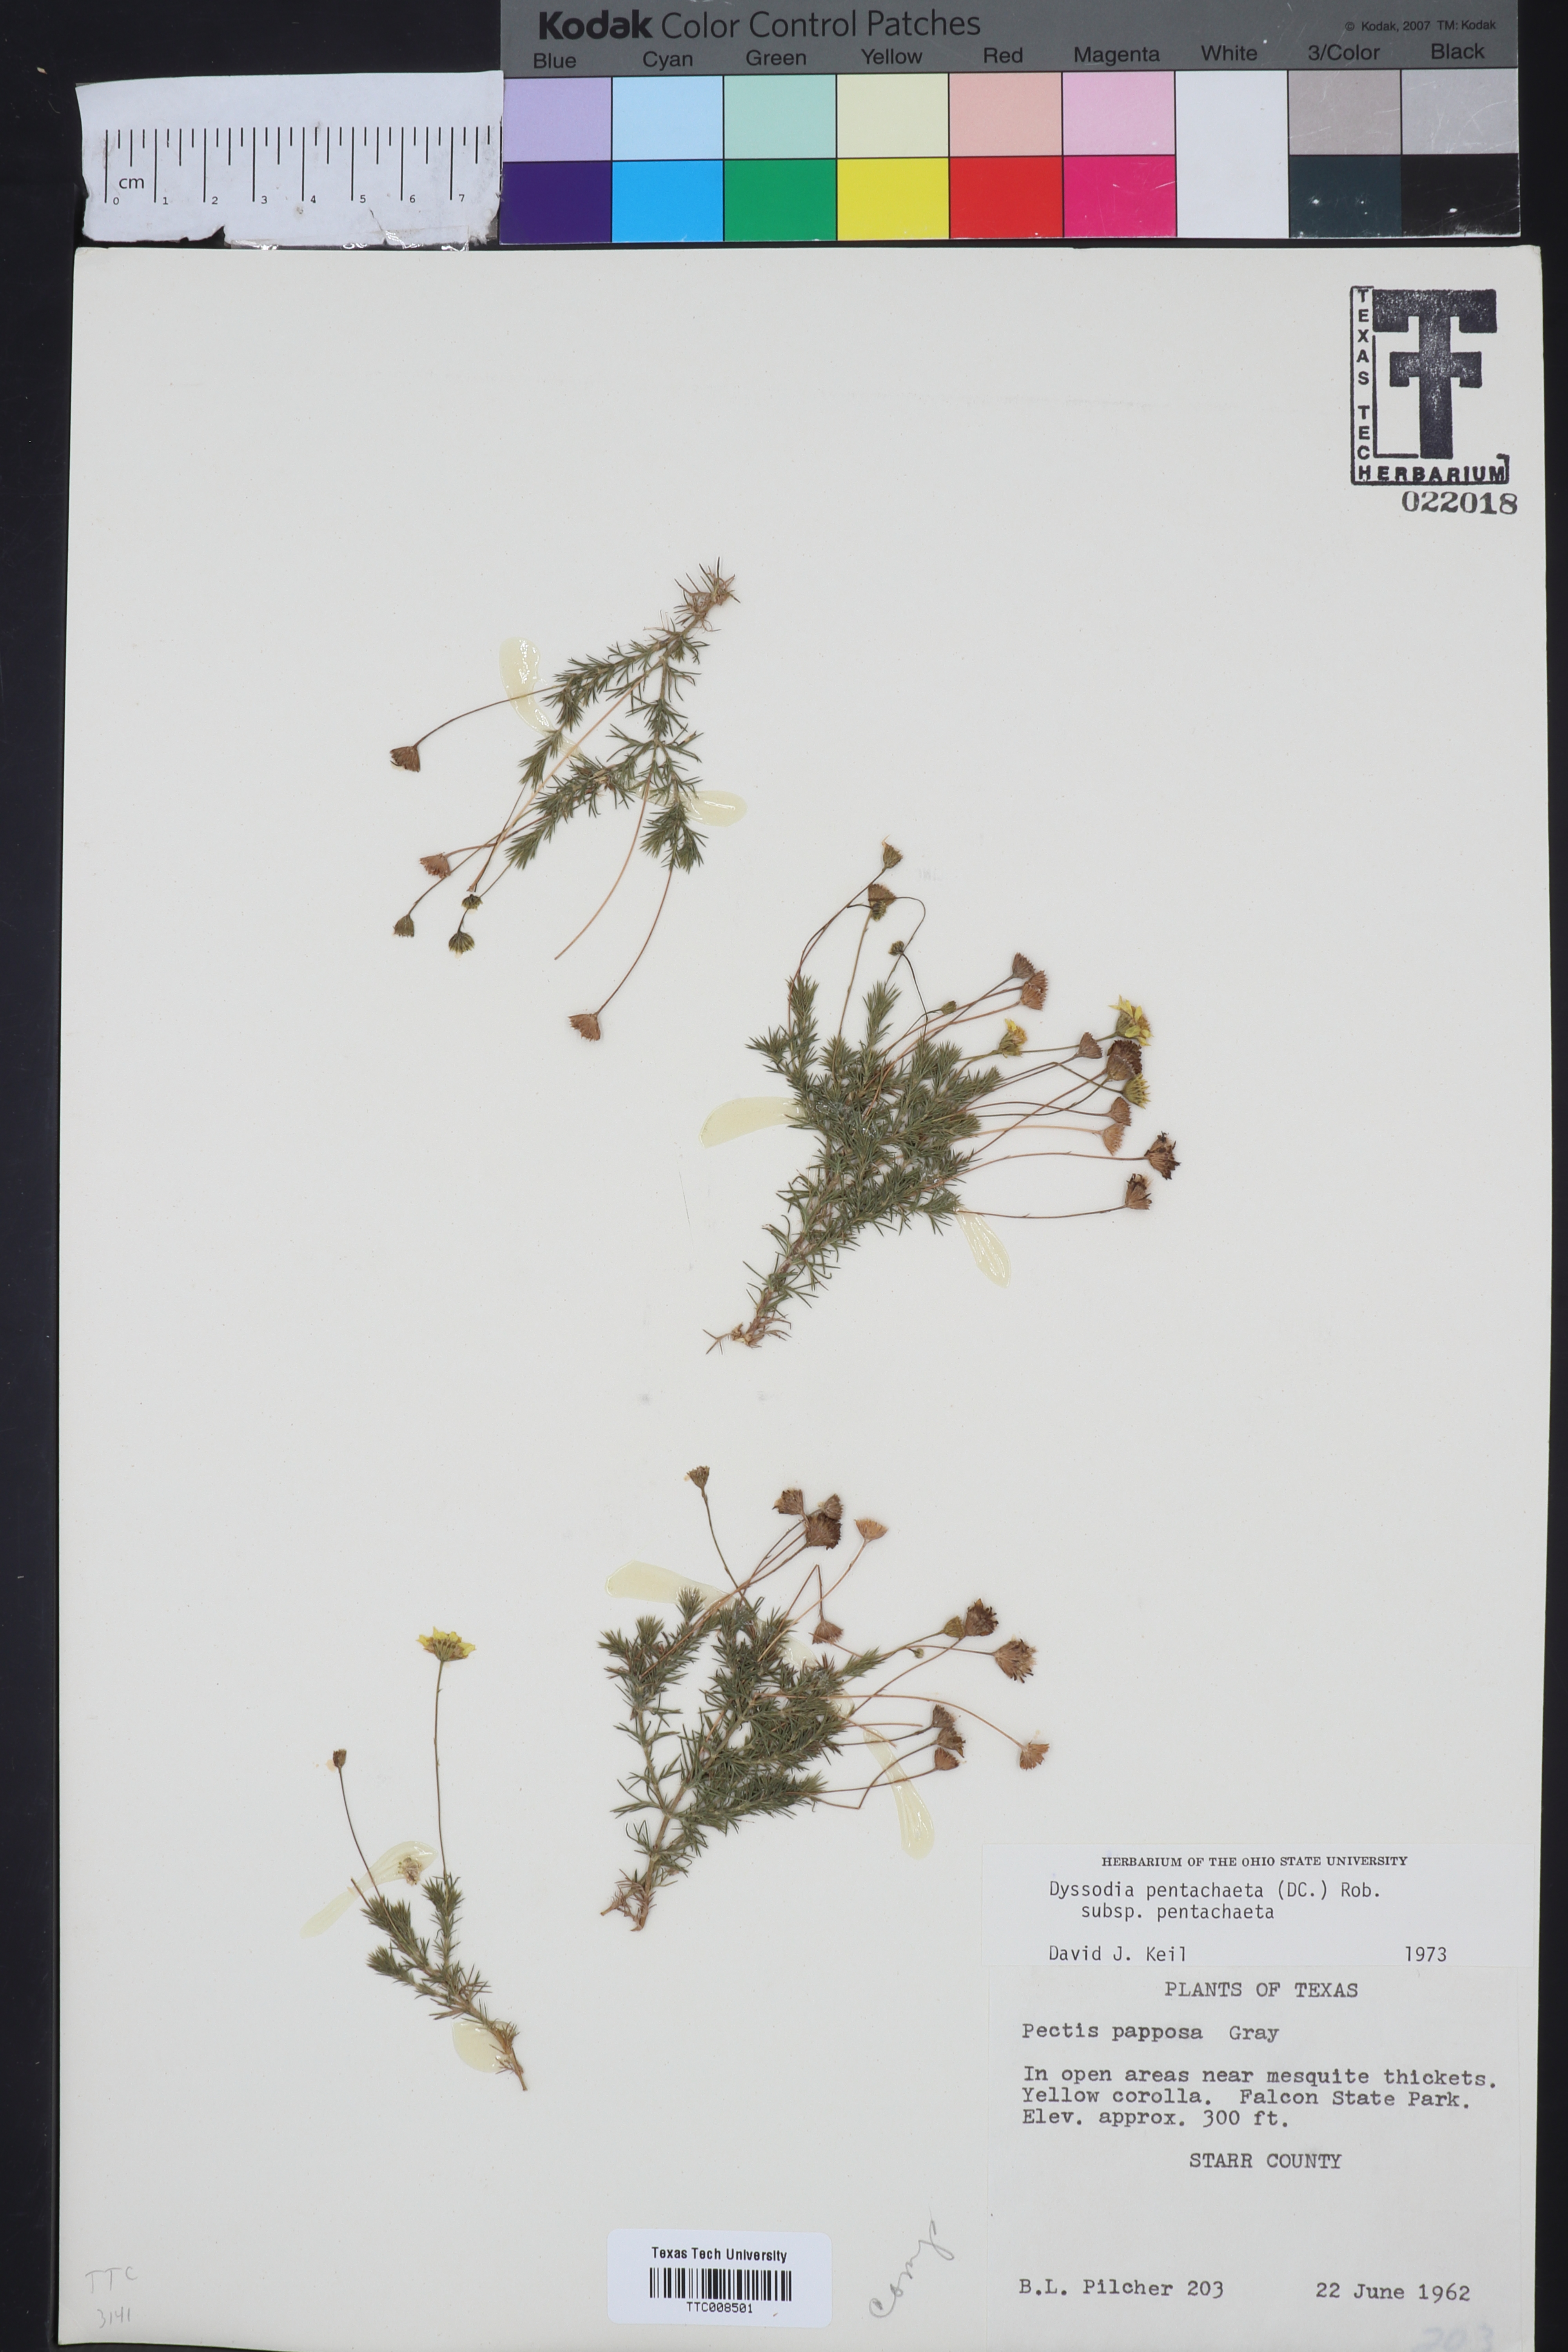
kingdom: Plantae
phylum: Tracheophyta
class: Magnoliopsida
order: Asterales
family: Asteraceae
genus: Thymophylla
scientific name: Thymophylla pentachaeta
